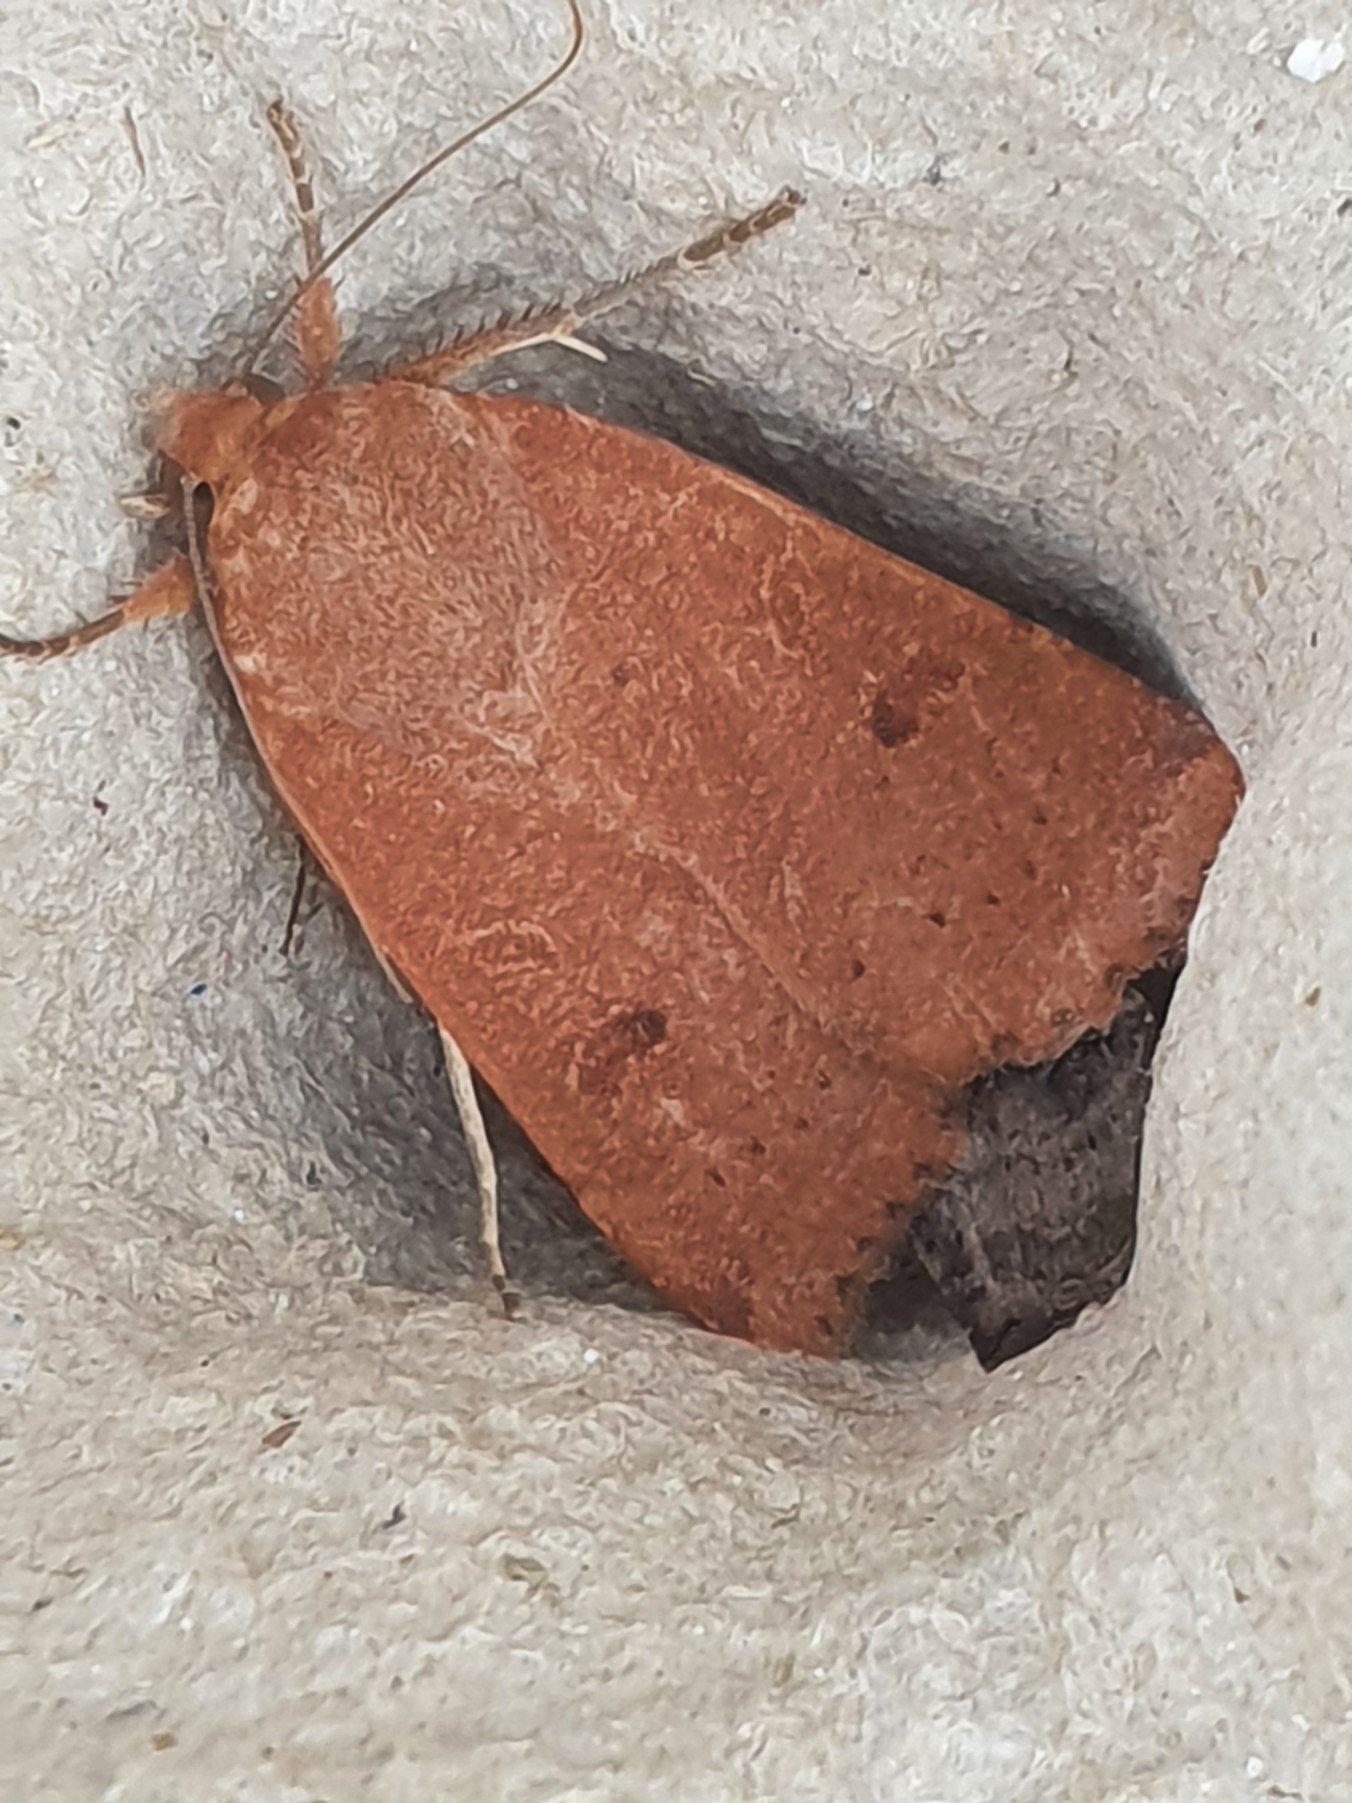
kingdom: Animalia
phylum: Arthropoda
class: Insecta
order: Lepidoptera
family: Noctuidae
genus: Noctua
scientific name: Noctua comes
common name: Svagtskygget smutugle
